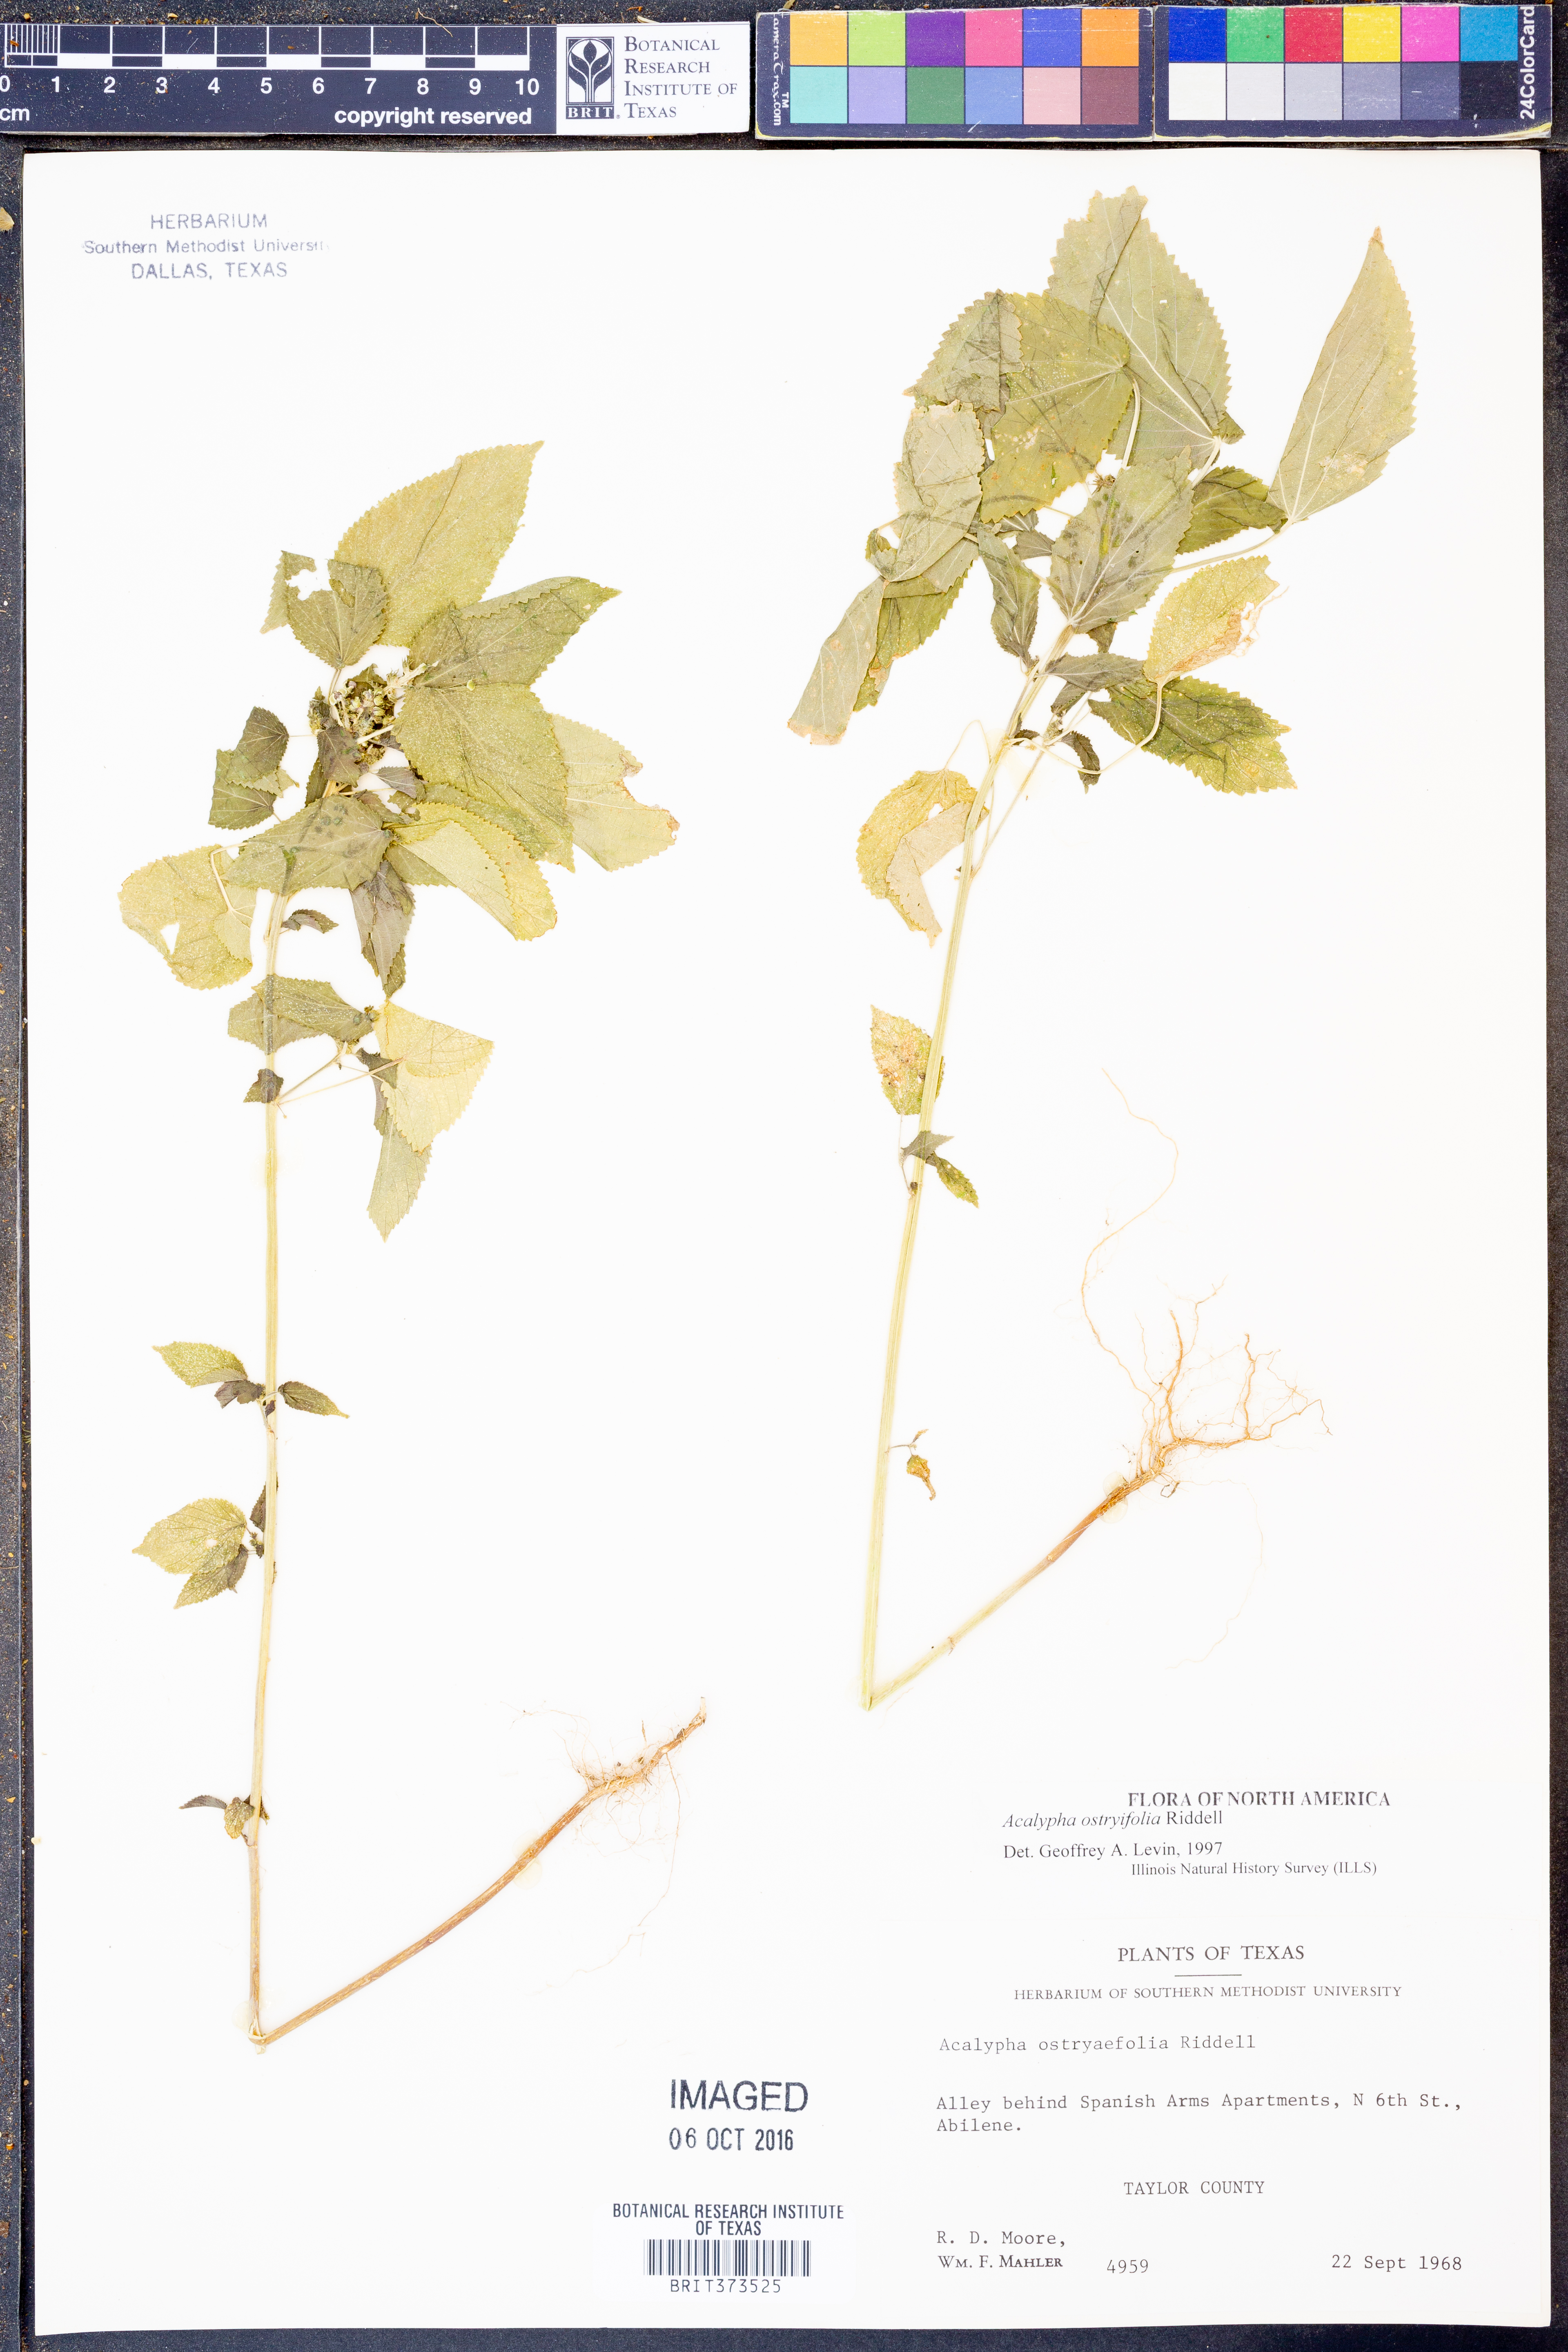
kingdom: Plantae
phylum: Tracheophyta
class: Magnoliopsida
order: Malpighiales
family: Euphorbiaceae
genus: Acalypha
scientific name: Acalypha persimilis
